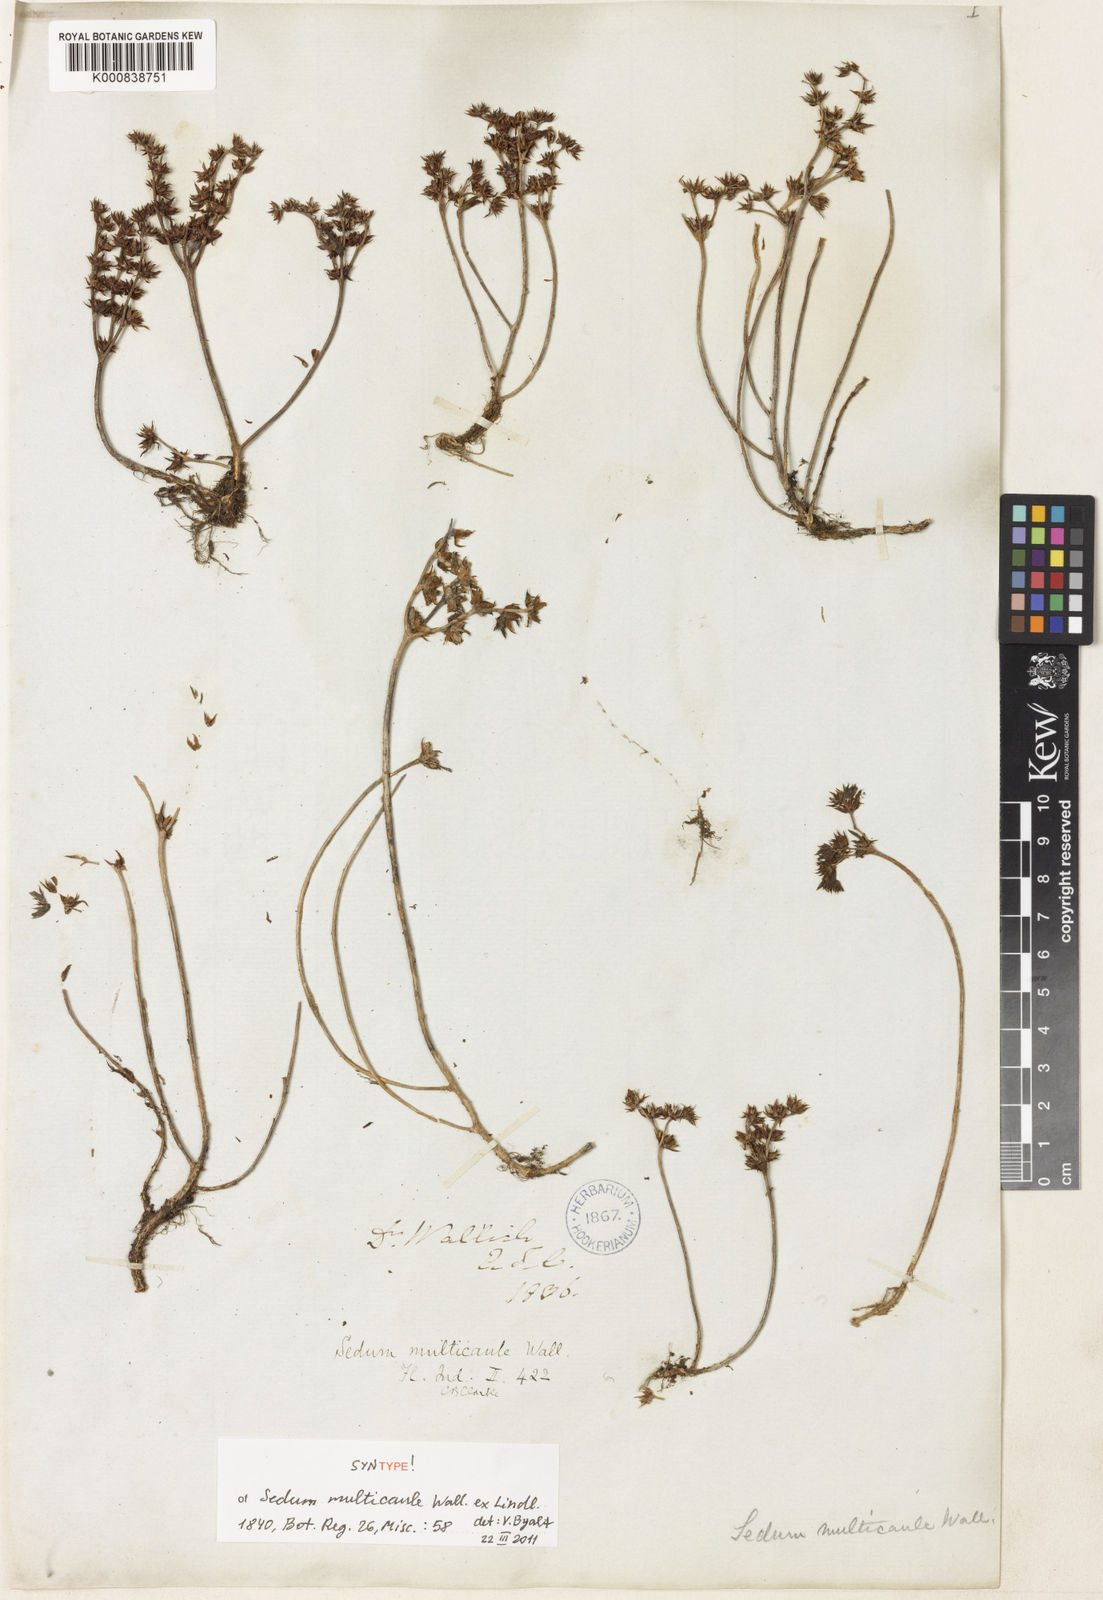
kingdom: Plantae
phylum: Tracheophyta
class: Magnoliopsida
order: Saxifragales
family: Crassulaceae
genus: Sedum
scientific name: Sedum
